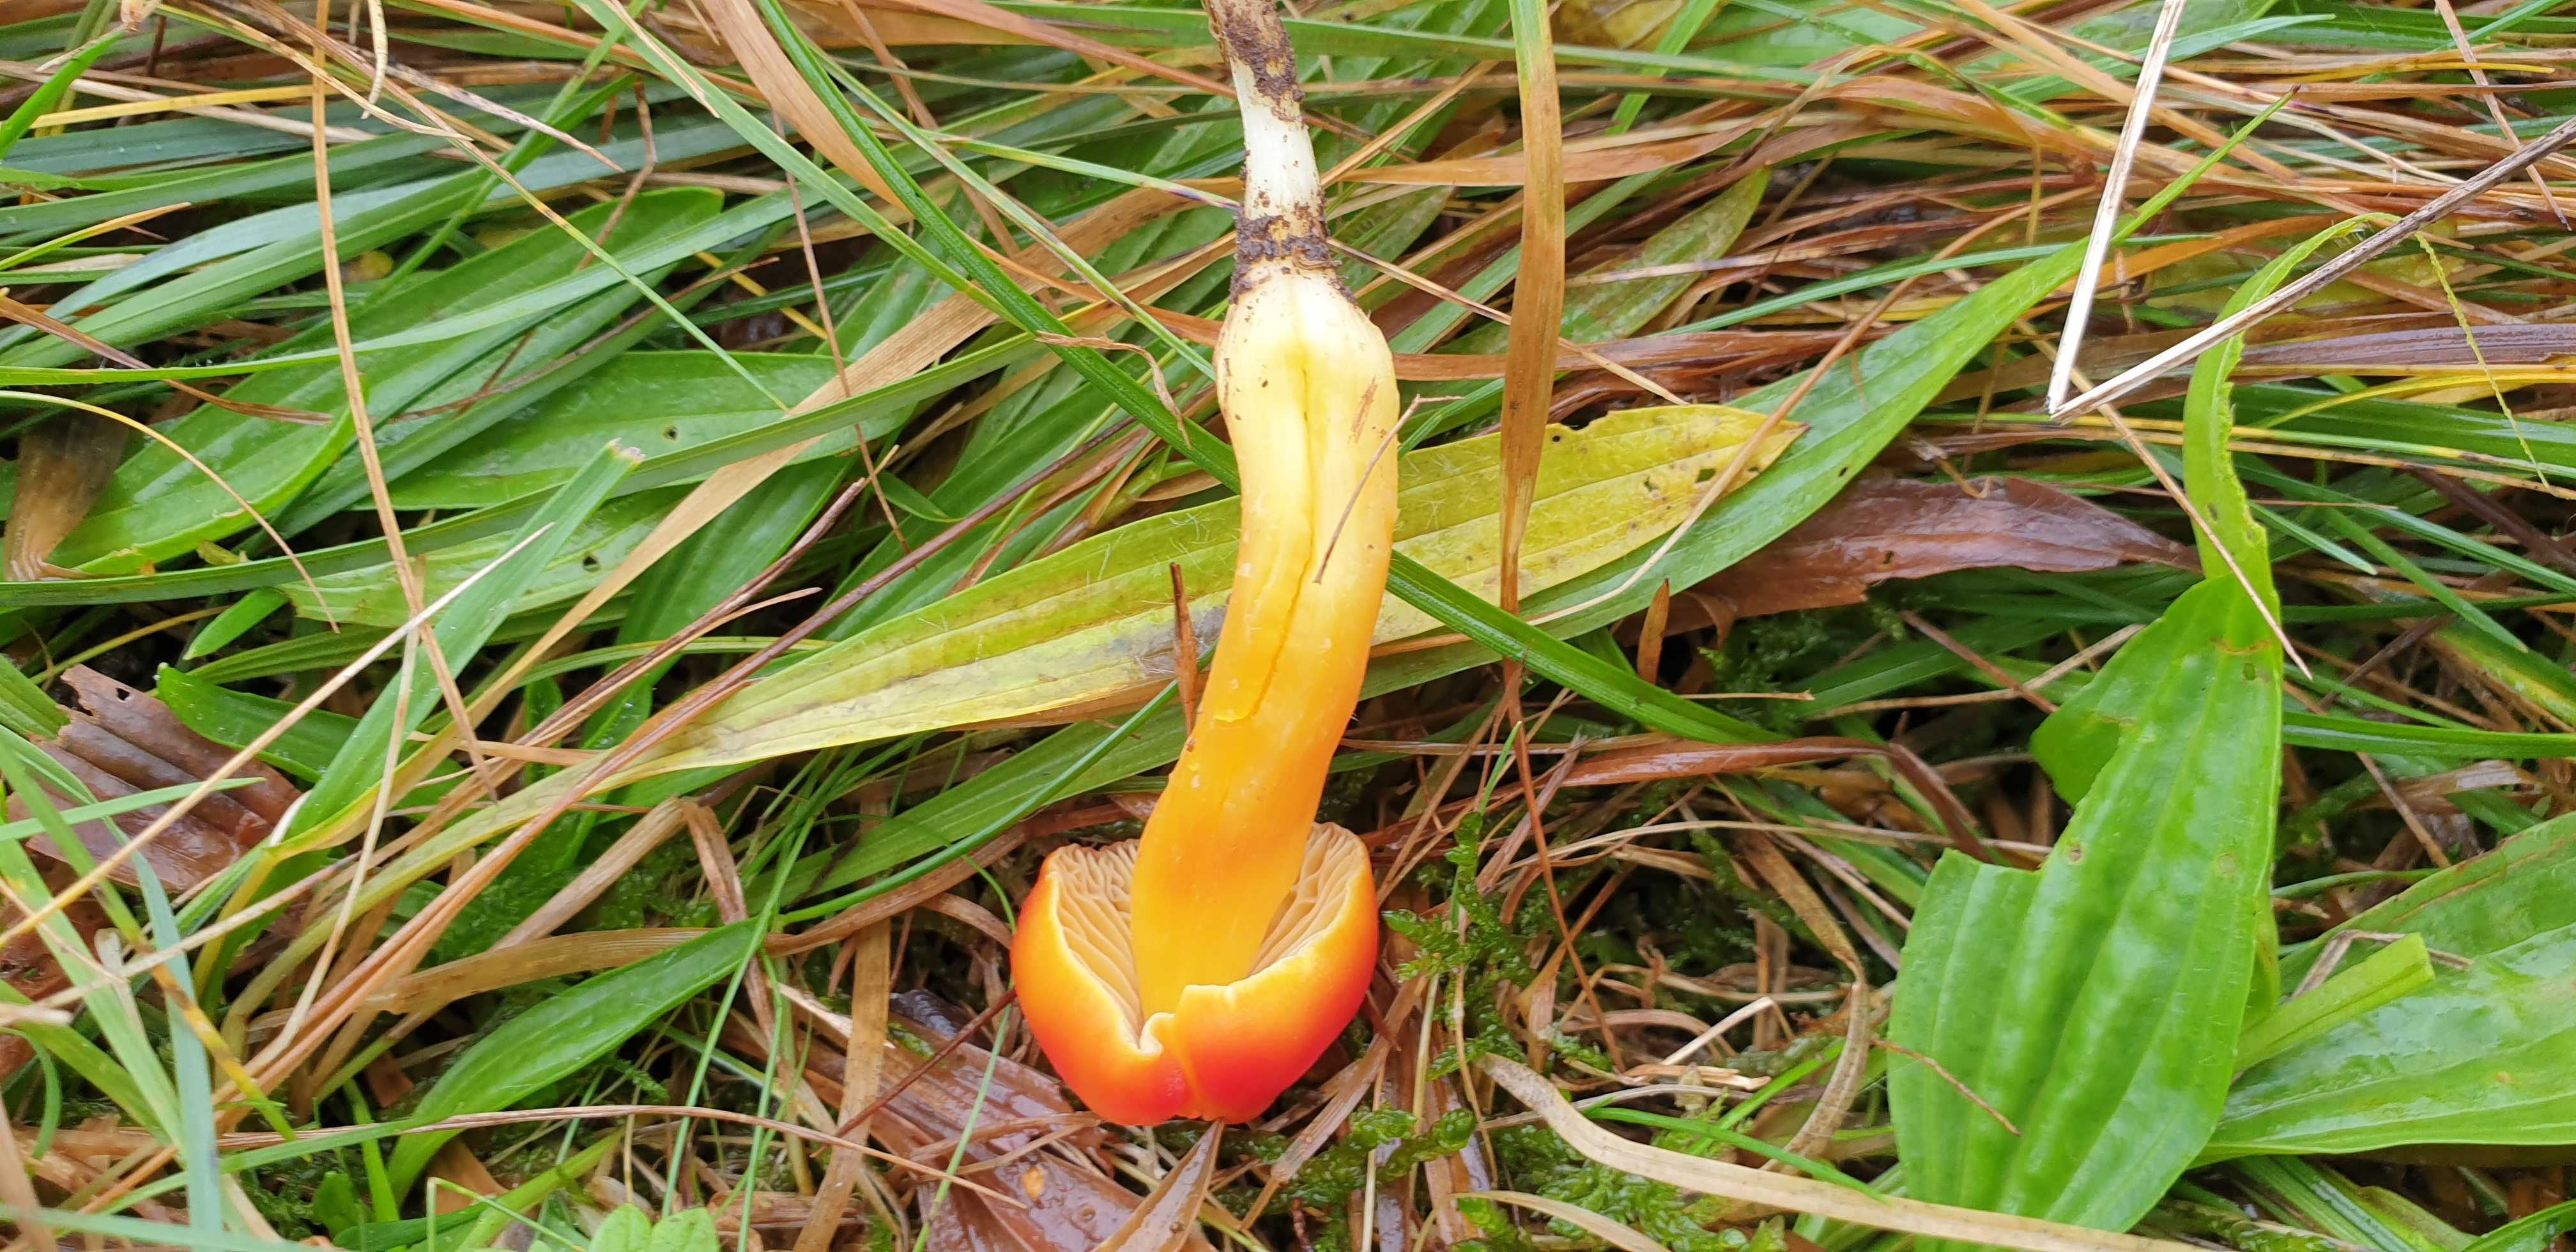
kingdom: Fungi
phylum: Basidiomycota
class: Agaricomycetes
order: Agaricales
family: Hygrophoraceae
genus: Hygrocybe
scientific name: Hygrocybe splendidissima
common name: knaldrød vokshat
